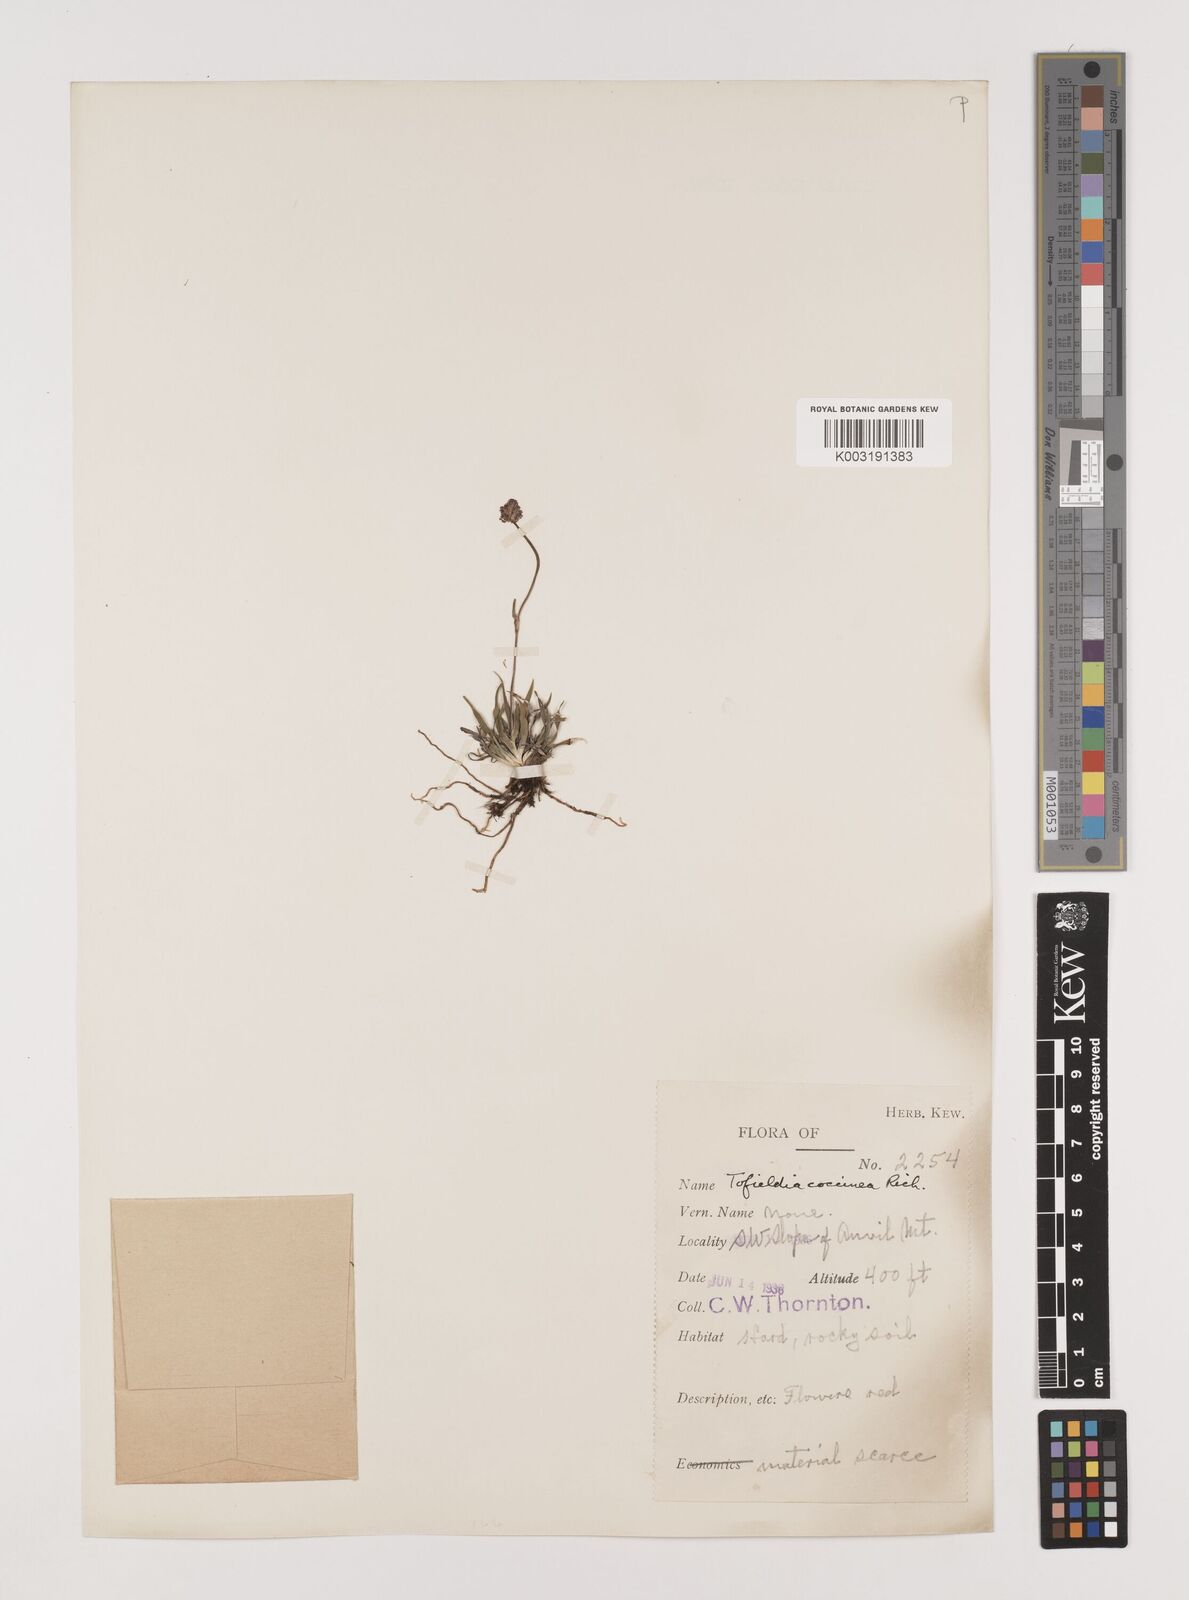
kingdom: Plantae
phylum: Tracheophyta
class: Liliopsida
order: Alismatales
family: Tofieldiaceae
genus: Tofieldia
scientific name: Tofieldia coccinea
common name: Northern false asphodel
